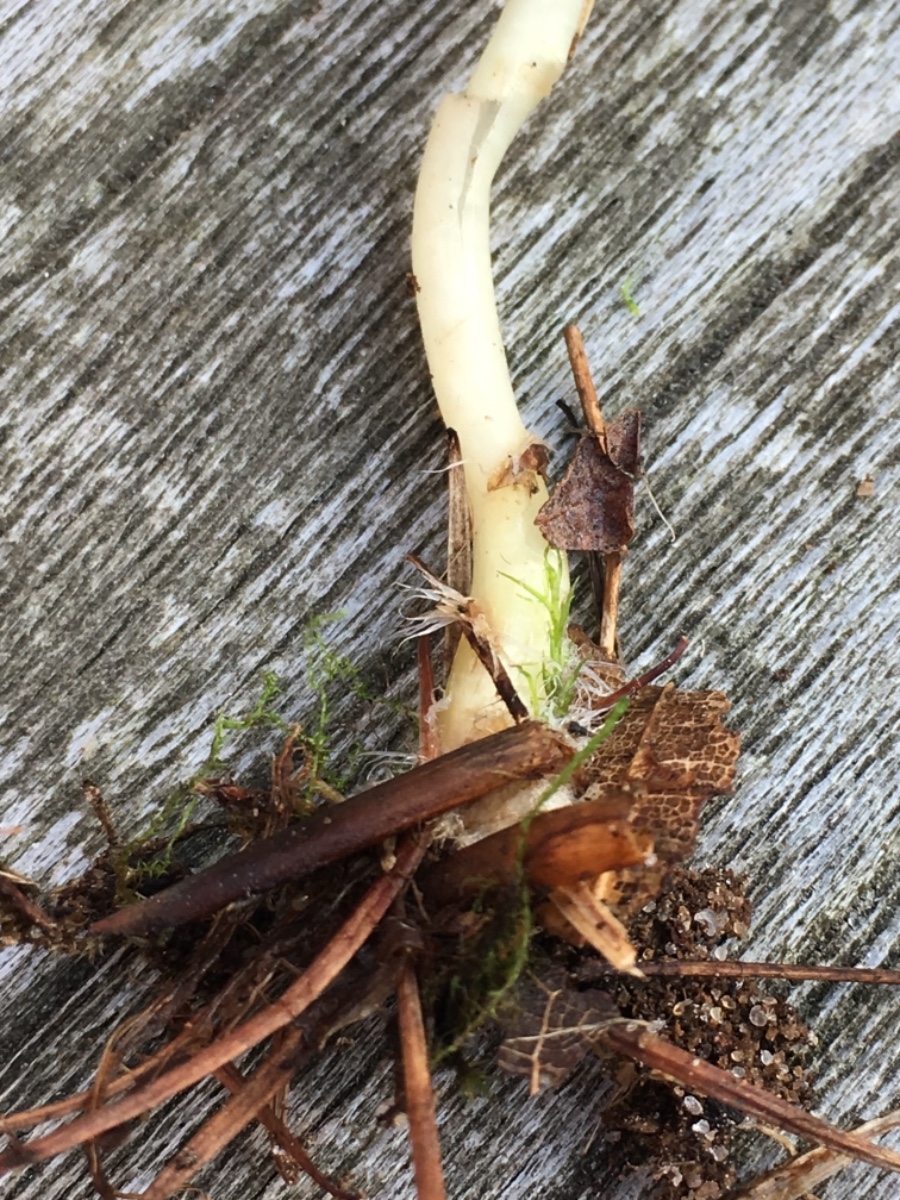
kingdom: Fungi
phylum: Basidiomycota
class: Agaricomycetes
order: Agaricales
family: Mycenaceae
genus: Mycena
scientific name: Mycena epipterygia
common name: gulstokket huesvamp
